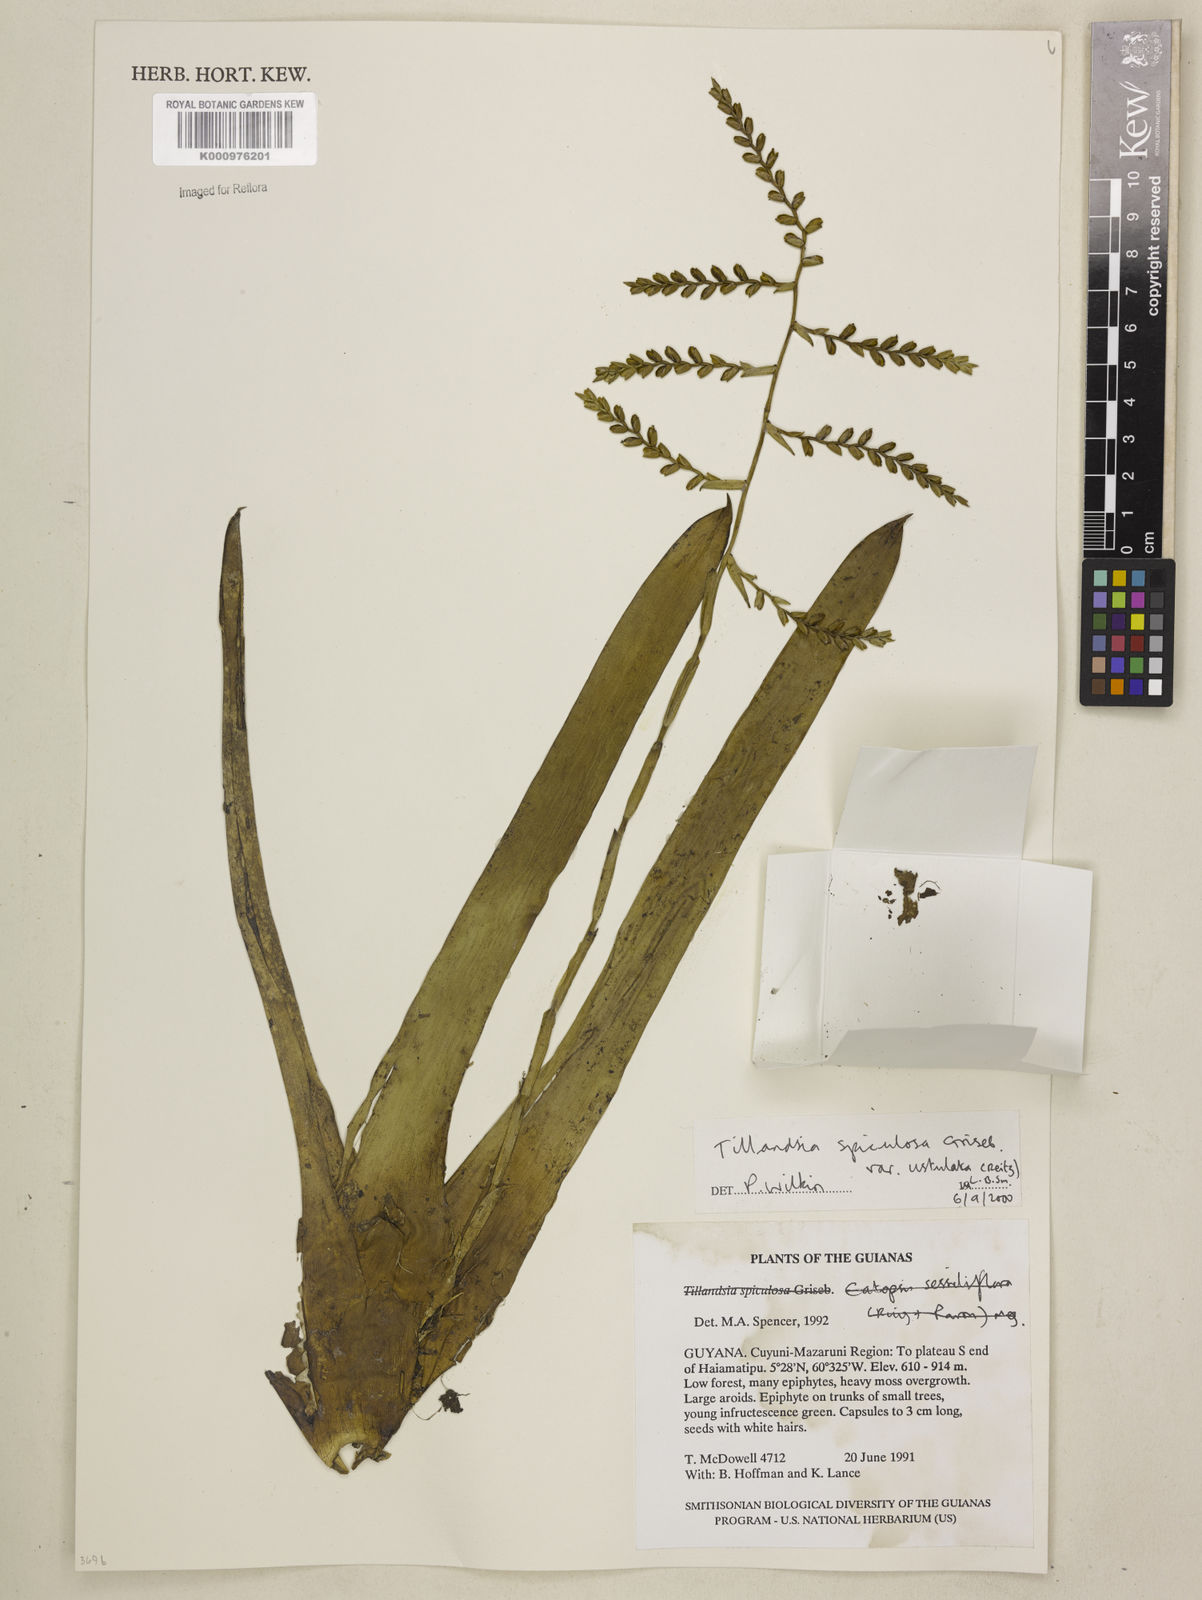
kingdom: Plantae
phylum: Tracheophyta
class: Liliopsida
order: Poales
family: Bromeliaceae
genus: Racinaea
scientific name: Racinaea spiculosa
